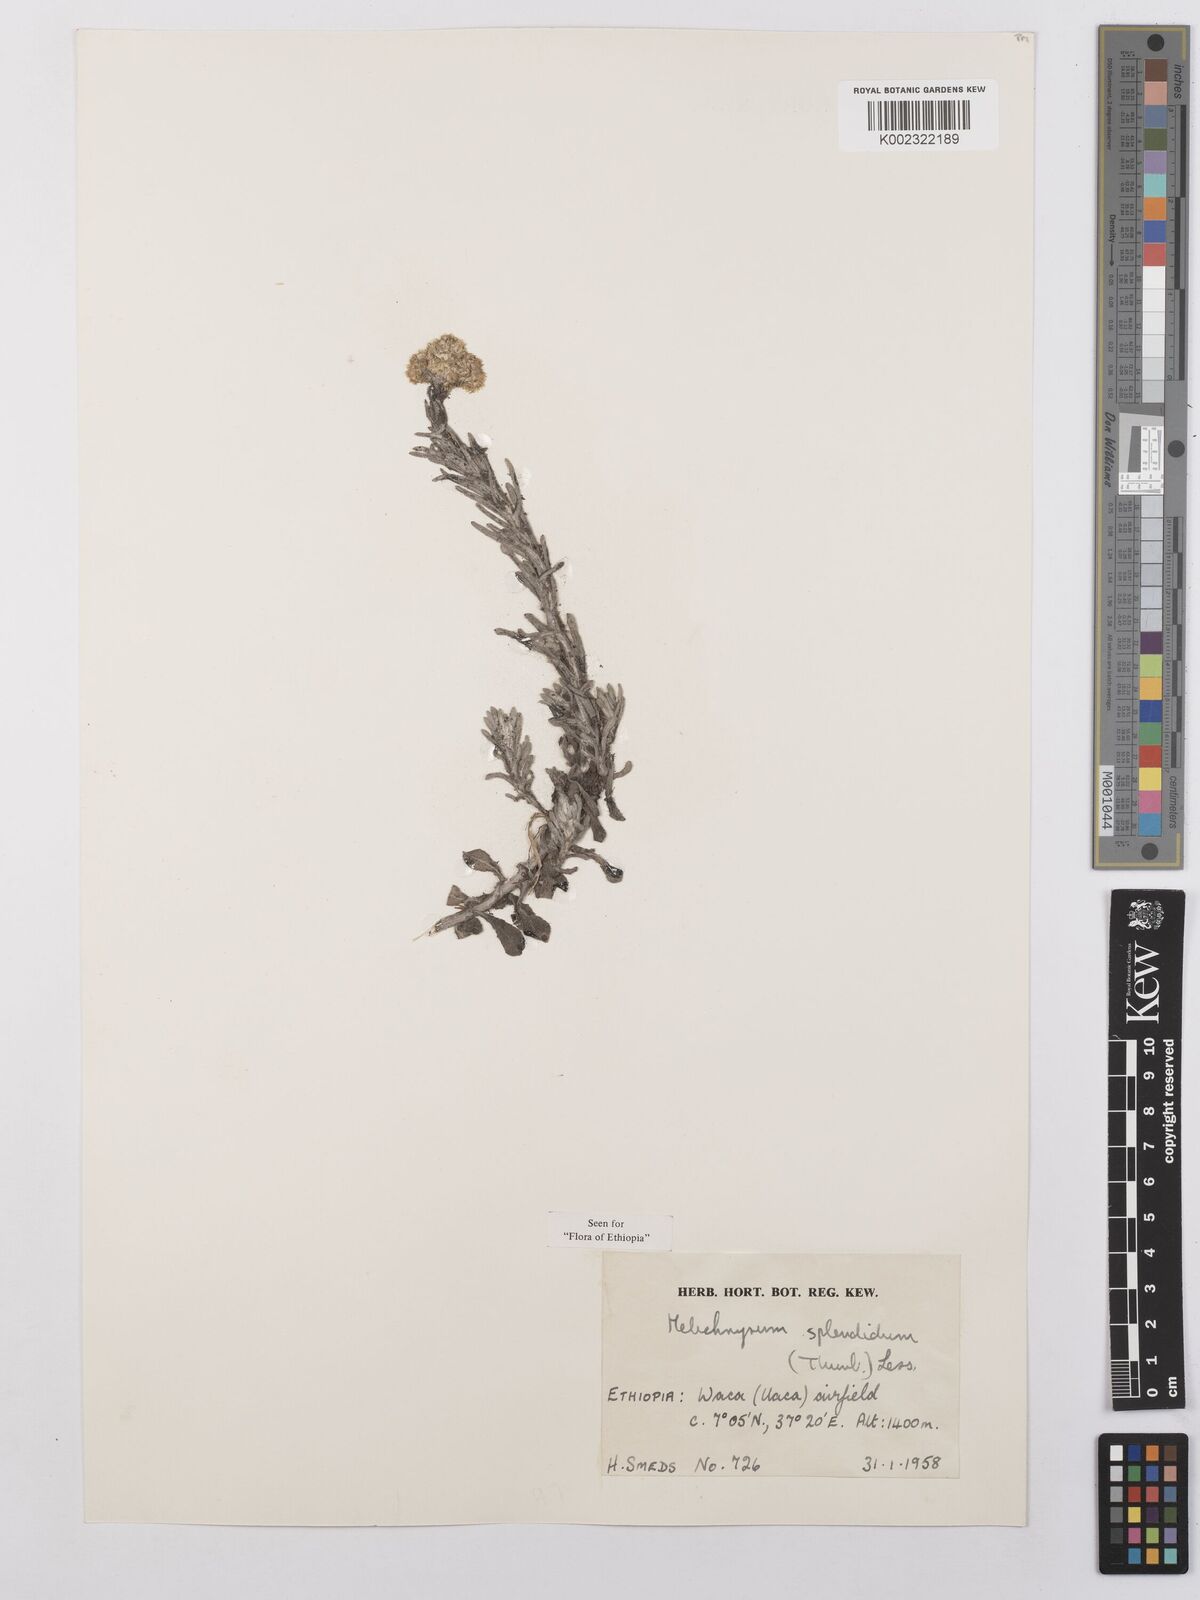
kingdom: Plantae
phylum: Tracheophyta
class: Magnoliopsida
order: Asterales
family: Asteraceae
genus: Helichrysum
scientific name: Helichrysum splendidum
